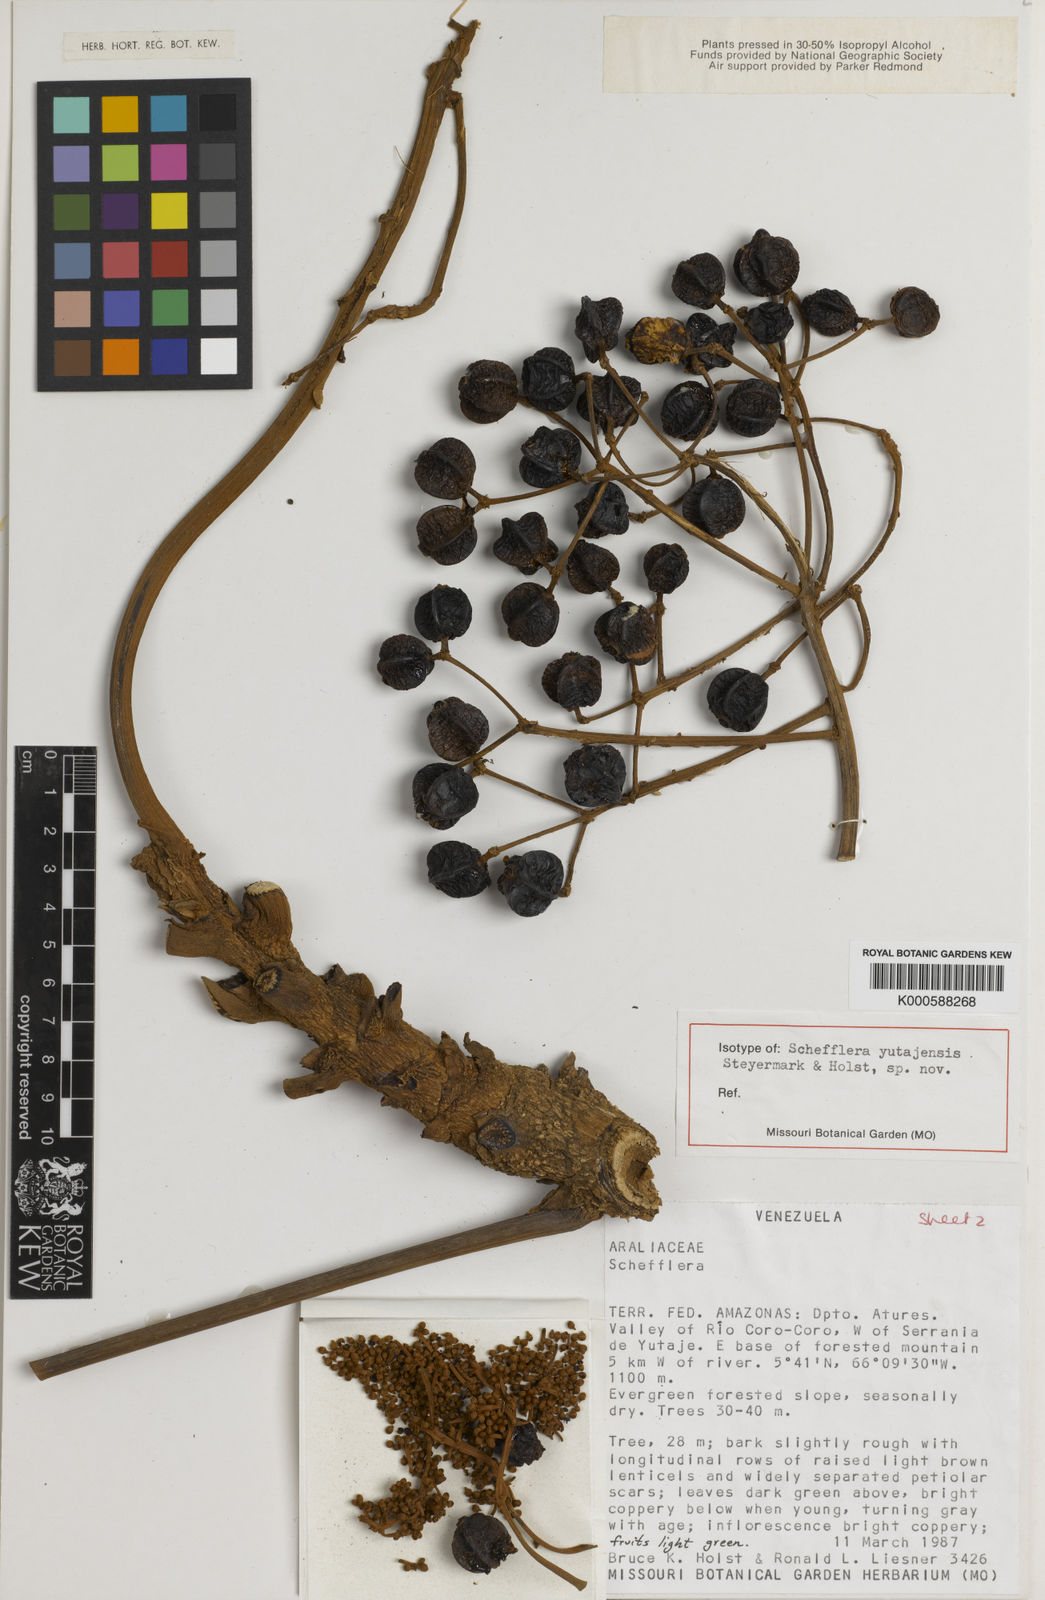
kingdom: Plantae
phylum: Tracheophyta
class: Magnoliopsida
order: Apiales
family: Araliaceae
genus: Didymopanax
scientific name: Didymopanax quinquecarinatus
